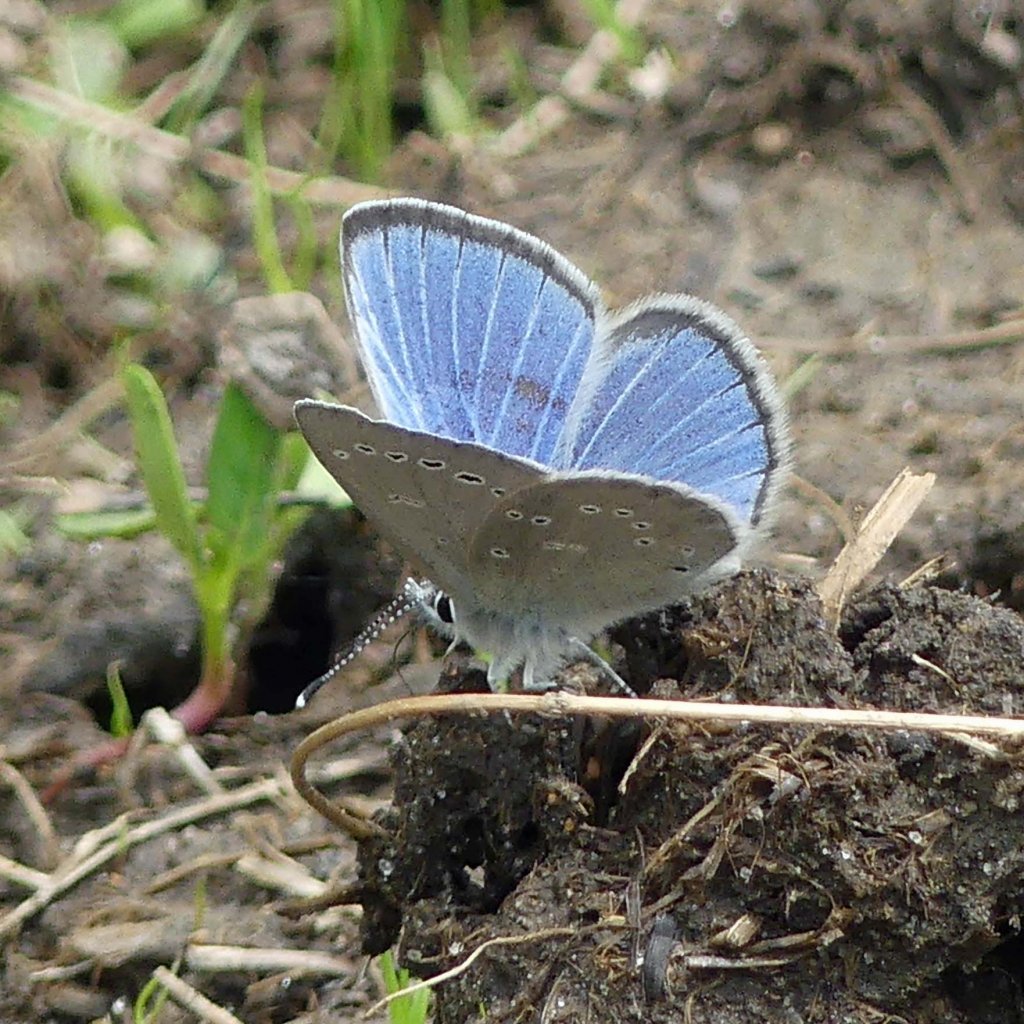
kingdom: Animalia
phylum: Arthropoda
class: Insecta
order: Lepidoptera
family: Lycaenidae
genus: Glaucopsyche
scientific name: Glaucopsyche lygdamus
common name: Silvery Blue
